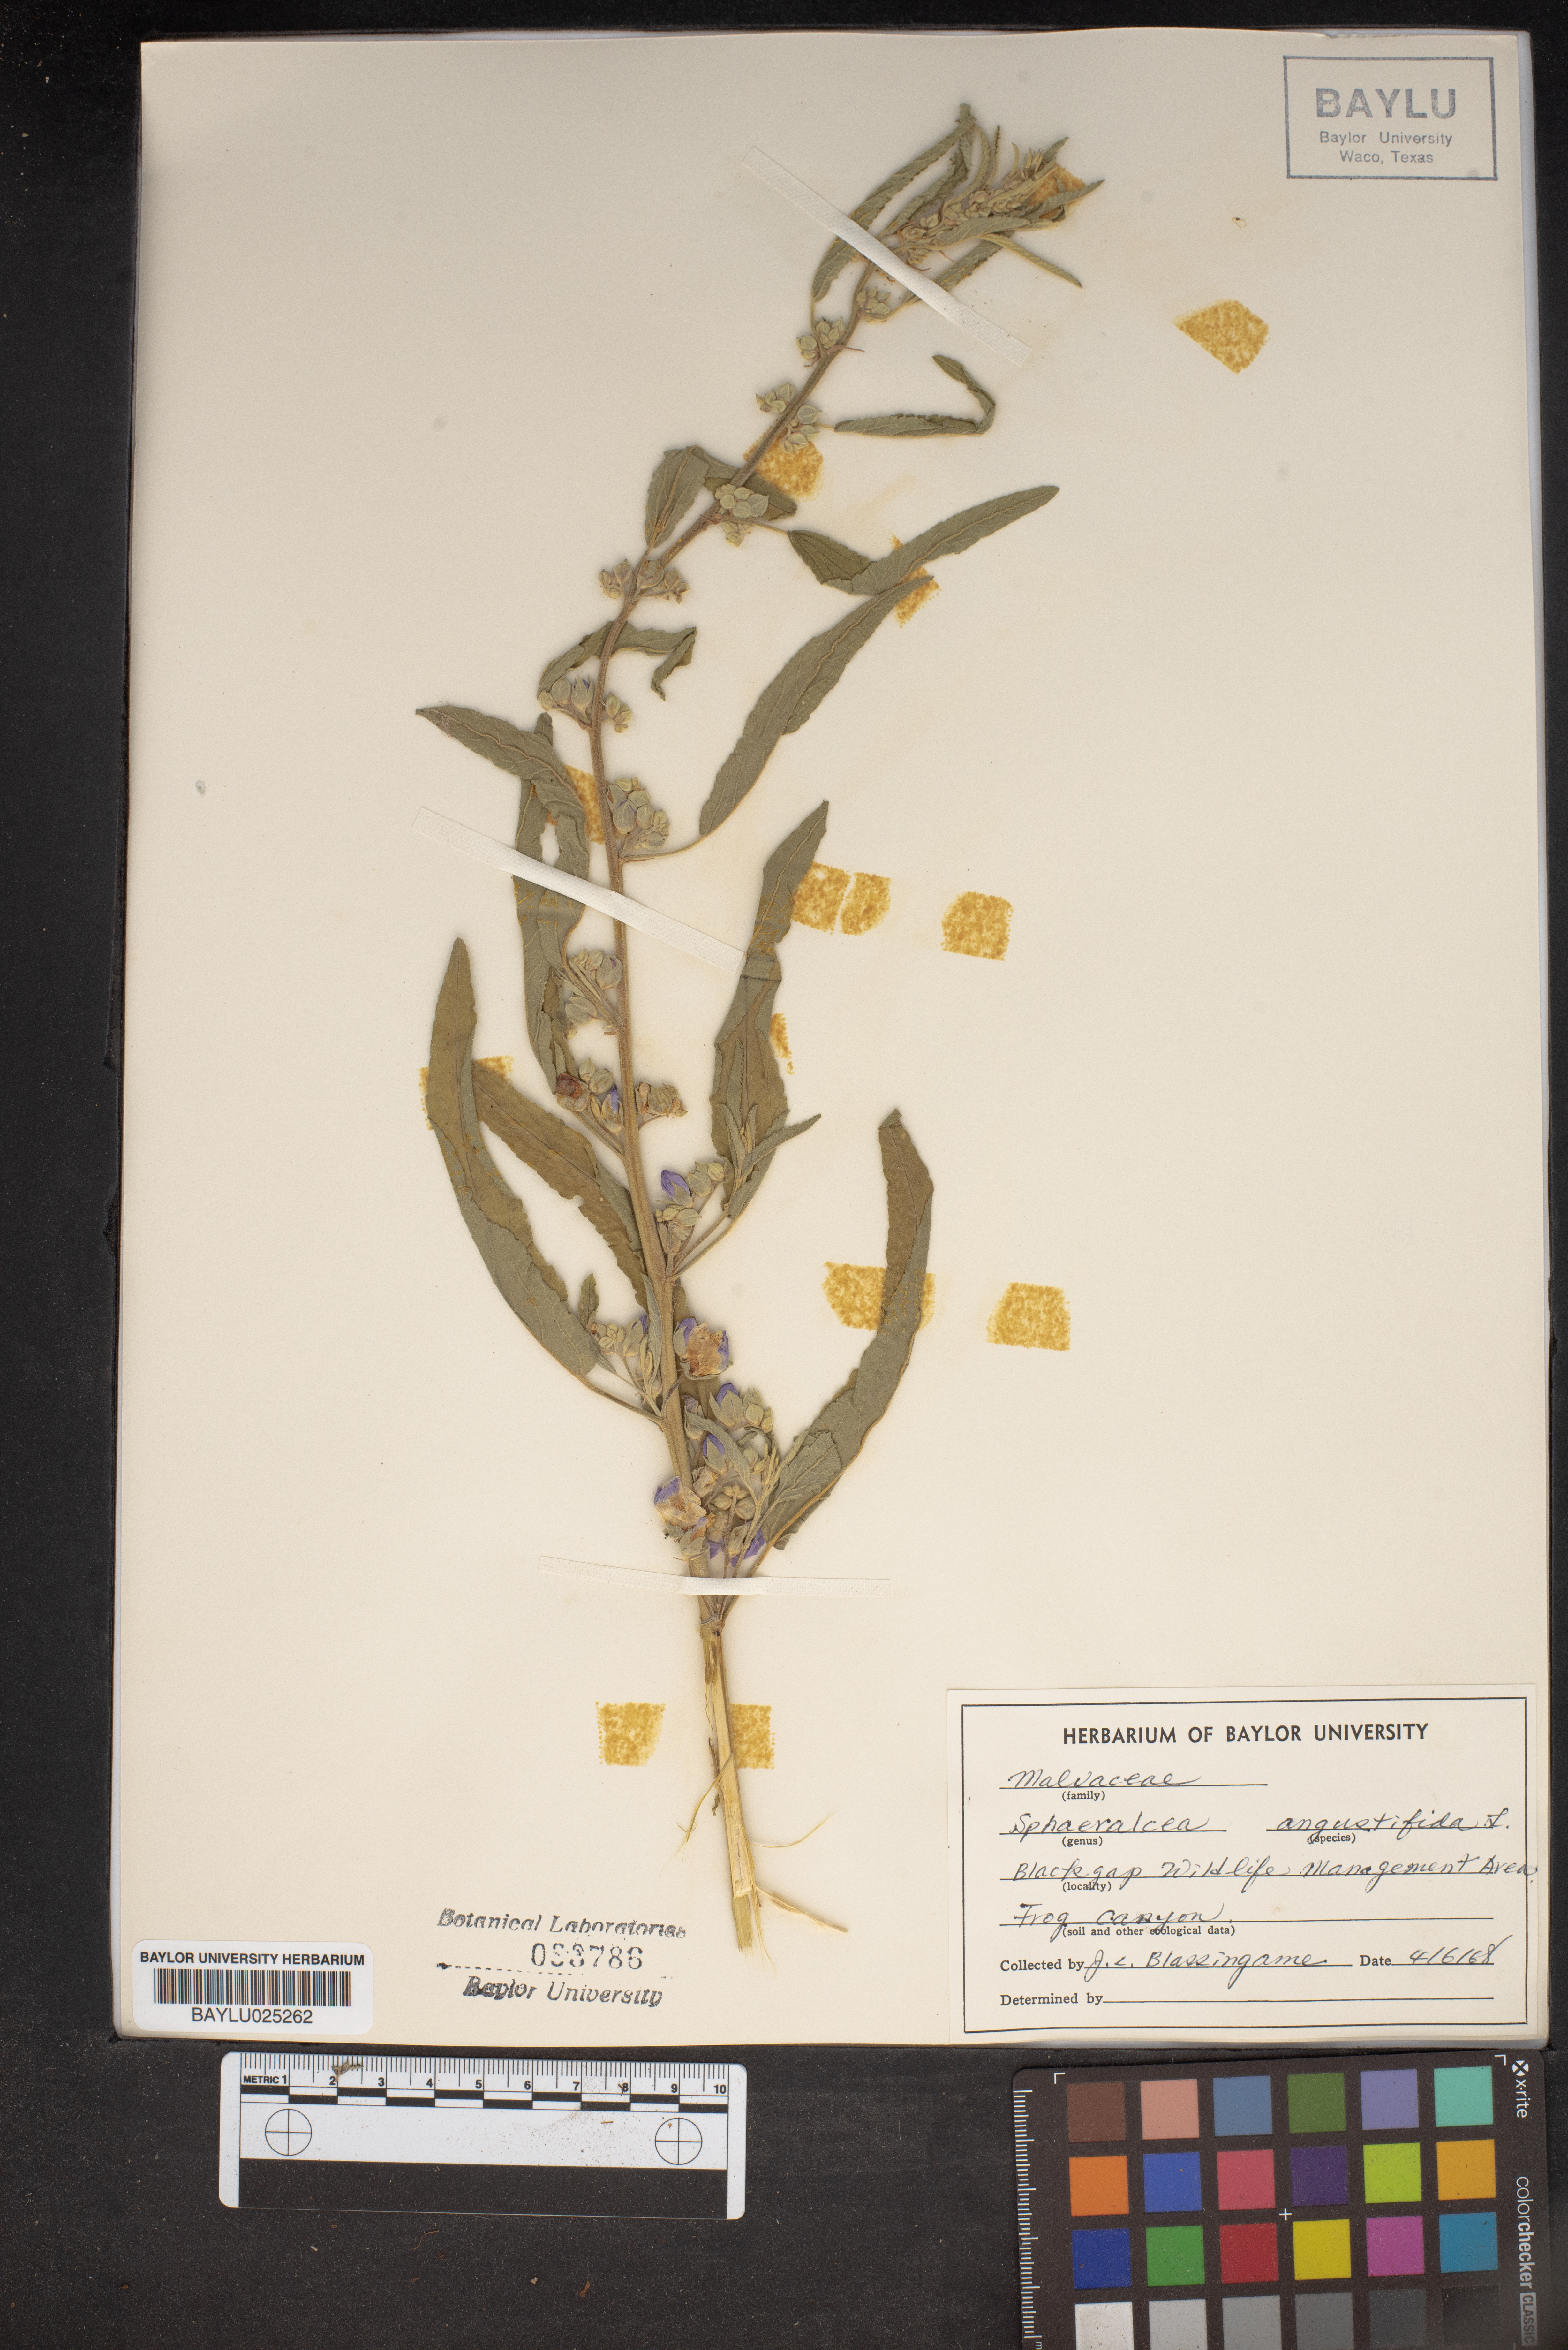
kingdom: Plantae
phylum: Tracheophyta
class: Magnoliopsida
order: Malvales
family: Malvaceae
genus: Sphaeralcea
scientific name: Sphaeralcea angustifolia
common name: Copper globe-mallow
